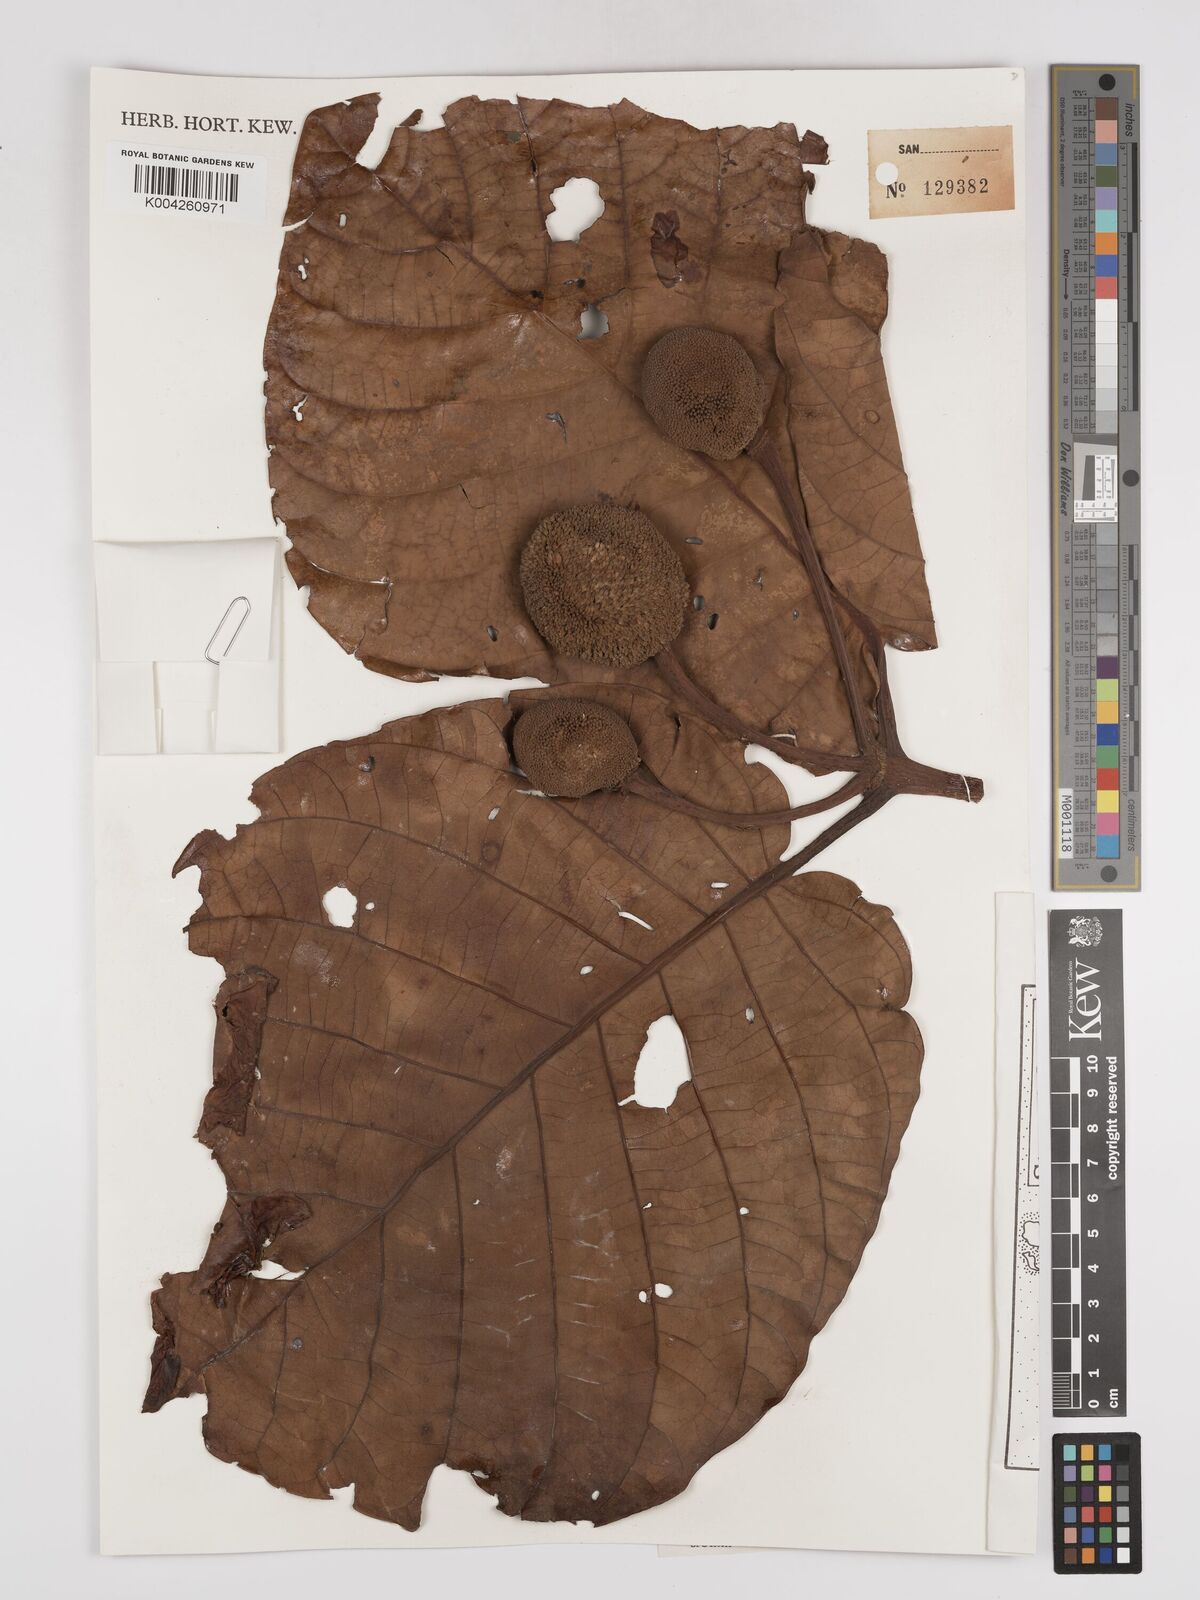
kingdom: Plantae
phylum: Tracheophyta
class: Magnoliopsida
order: Gentianales
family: Rubiaceae
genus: Neonauclea
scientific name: Neonauclea gigantea
